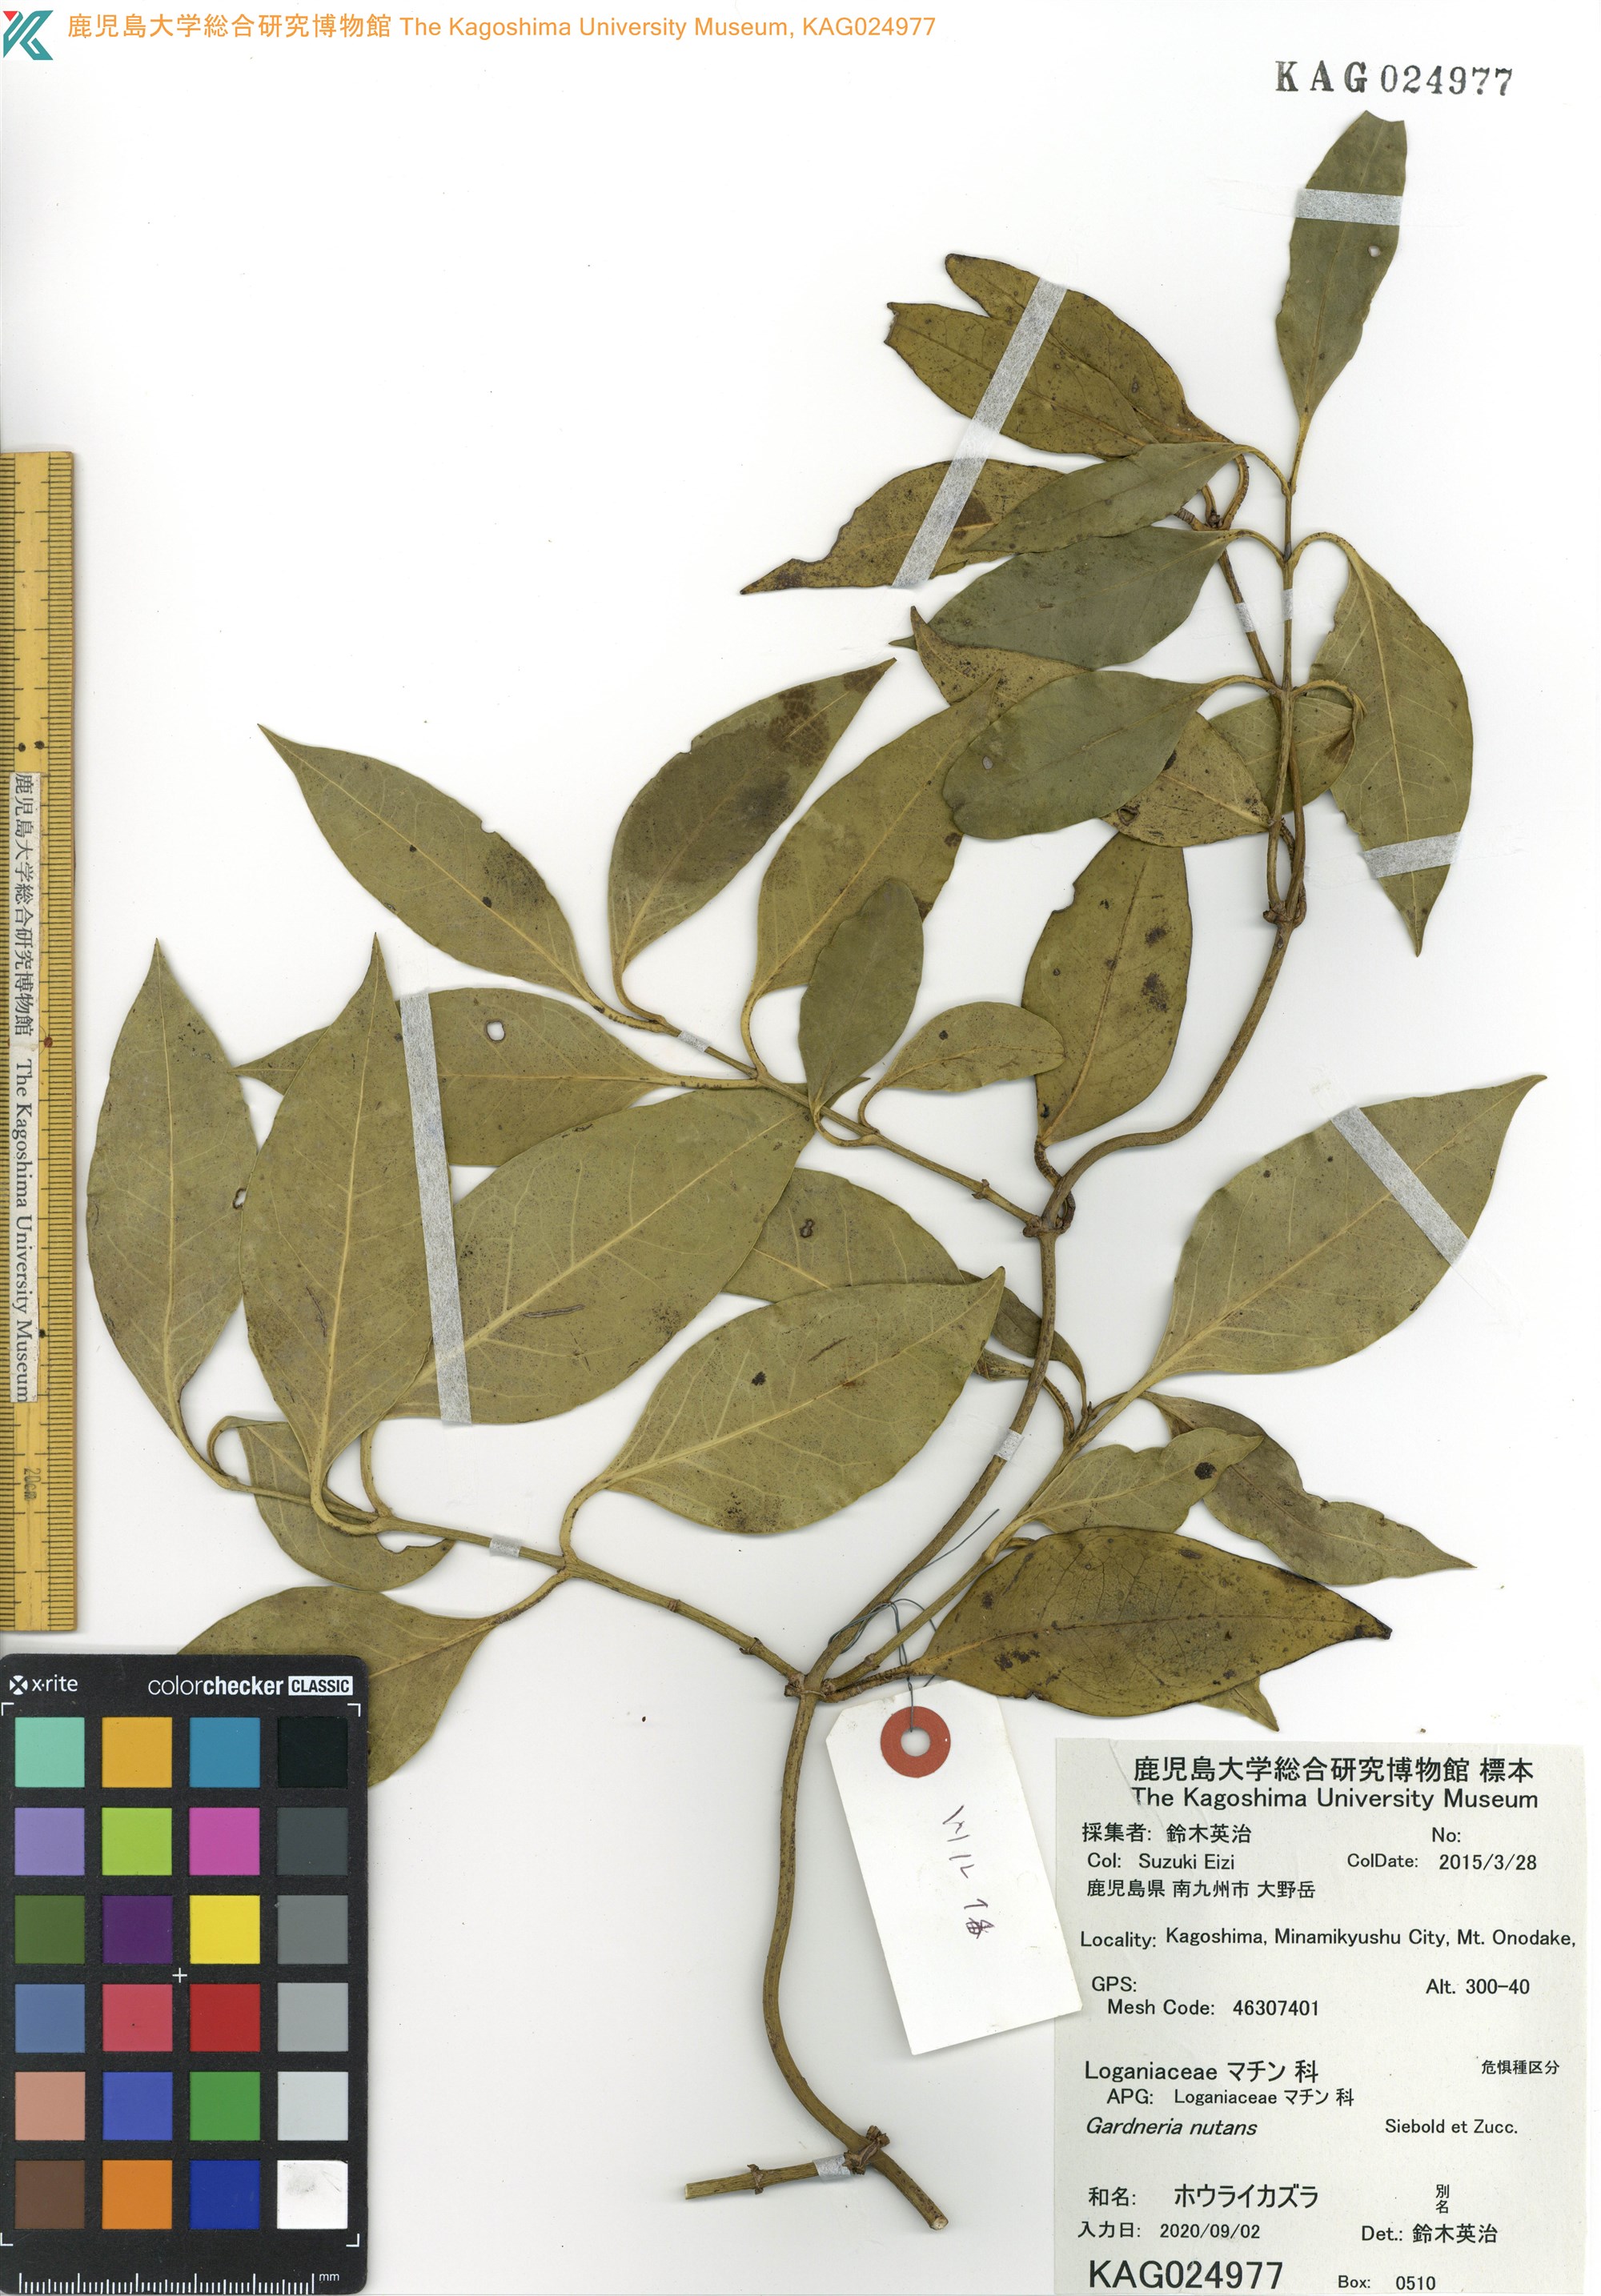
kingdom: Plantae
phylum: Tracheophyta
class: Magnoliopsida
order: Gentianales
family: Loganiaceae
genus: Gardneria
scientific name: Gardneria nutans
